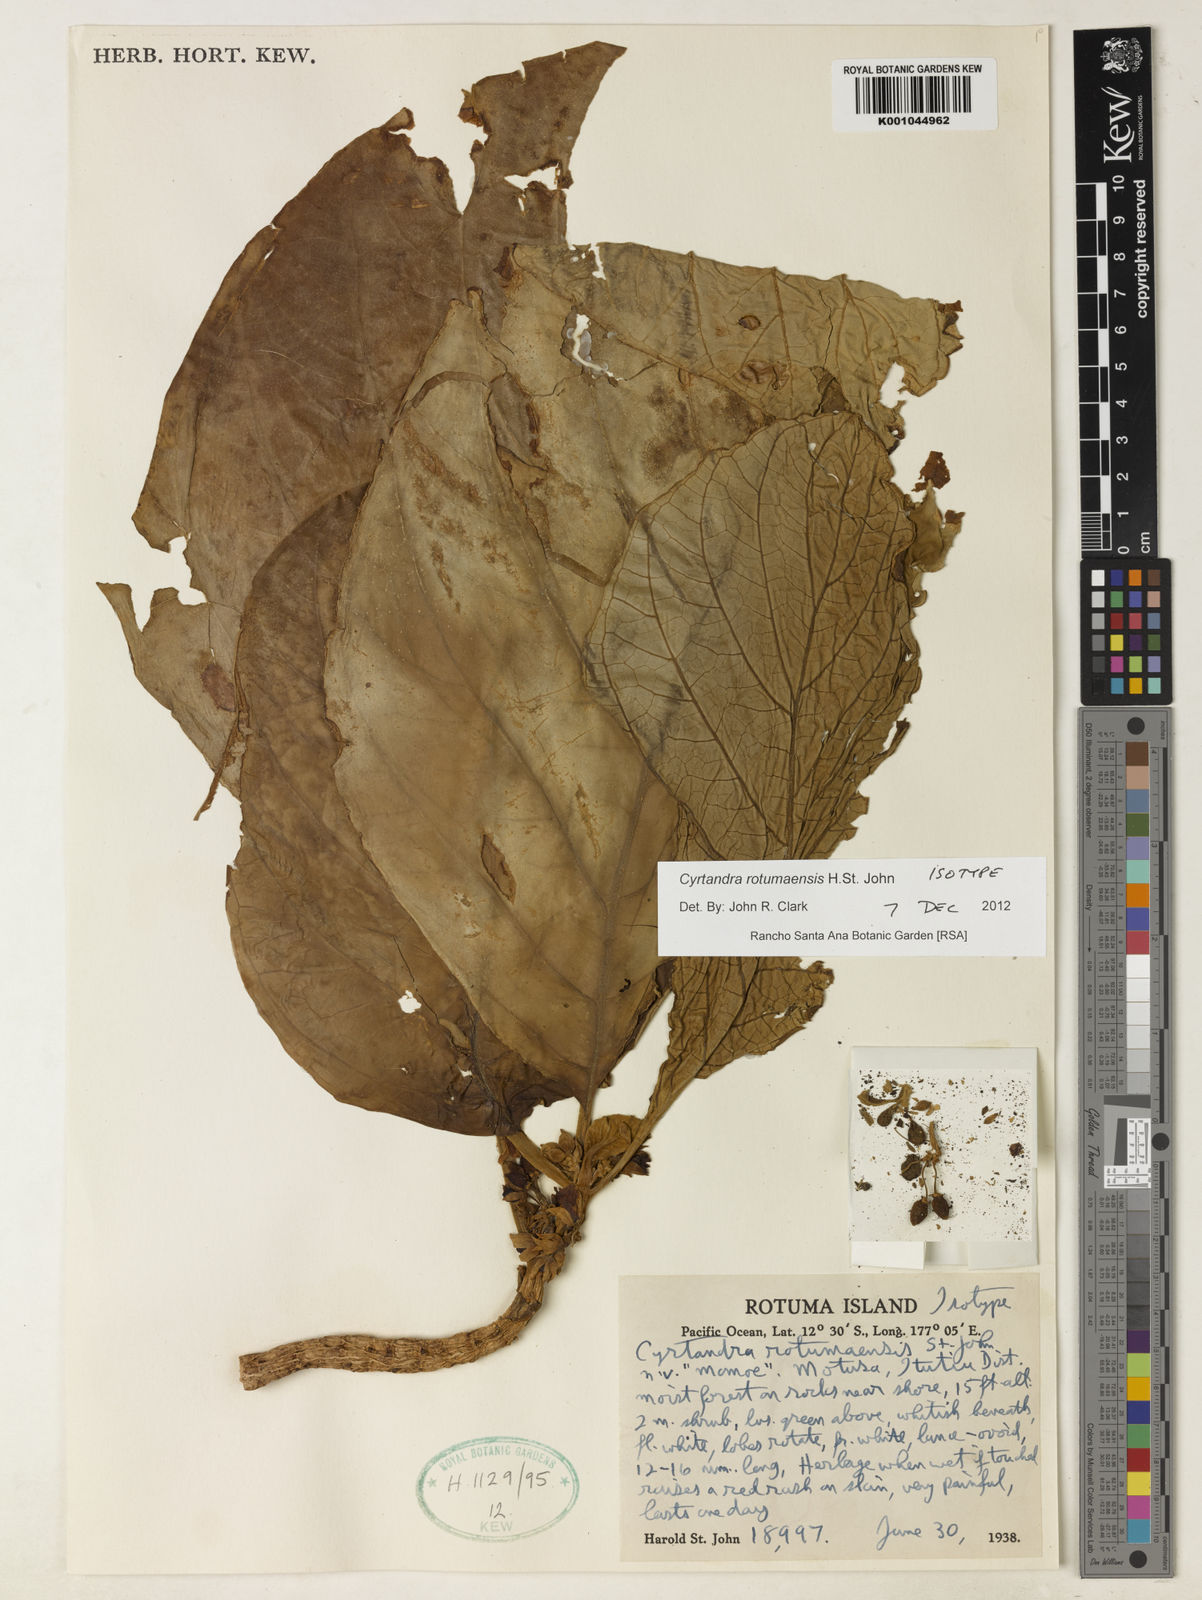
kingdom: Plantae
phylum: Tracheophyta
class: Magnoliopsida
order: Lamiales
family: Gesneriaceae
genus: Cyrtandra
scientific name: Cyrtandra rotumaensis
